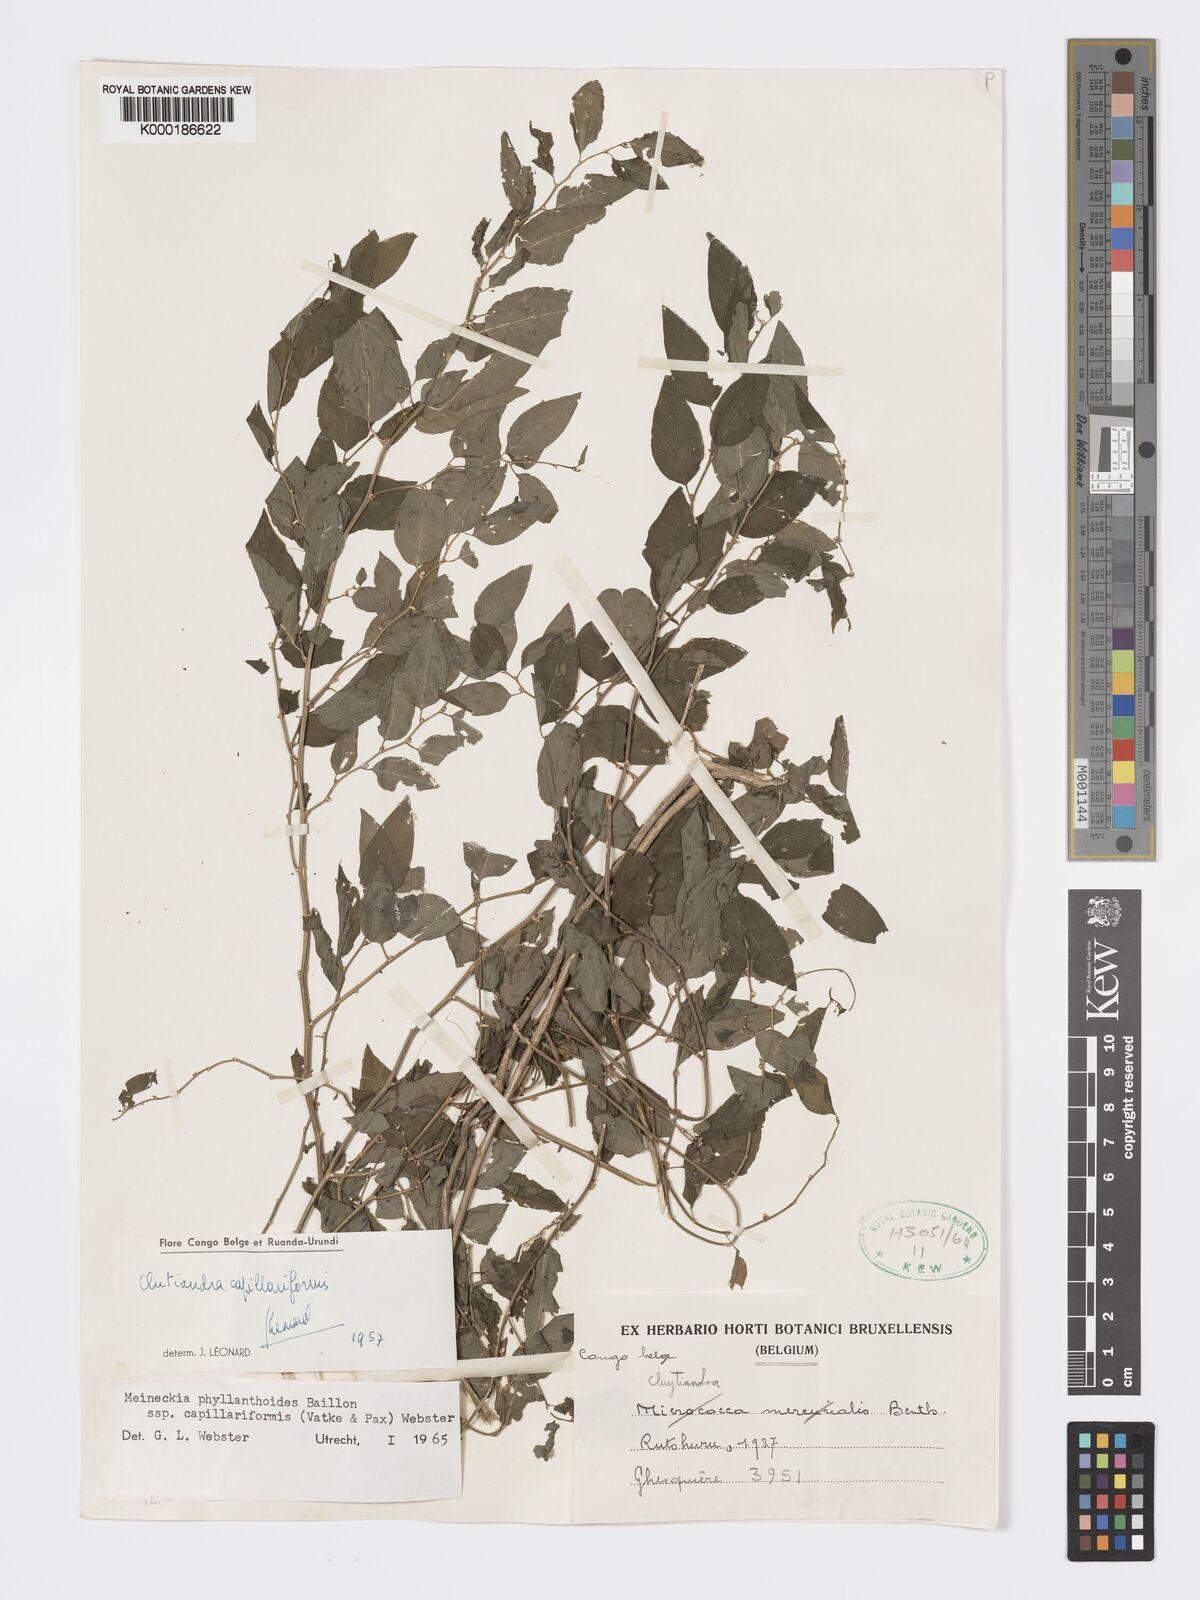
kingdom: Plantae
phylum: Tracheophyta
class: Magnoliopsida
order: Malpighiales
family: Phyllanthaceae
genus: Meineckia
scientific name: Meineckia phyllanthoides
